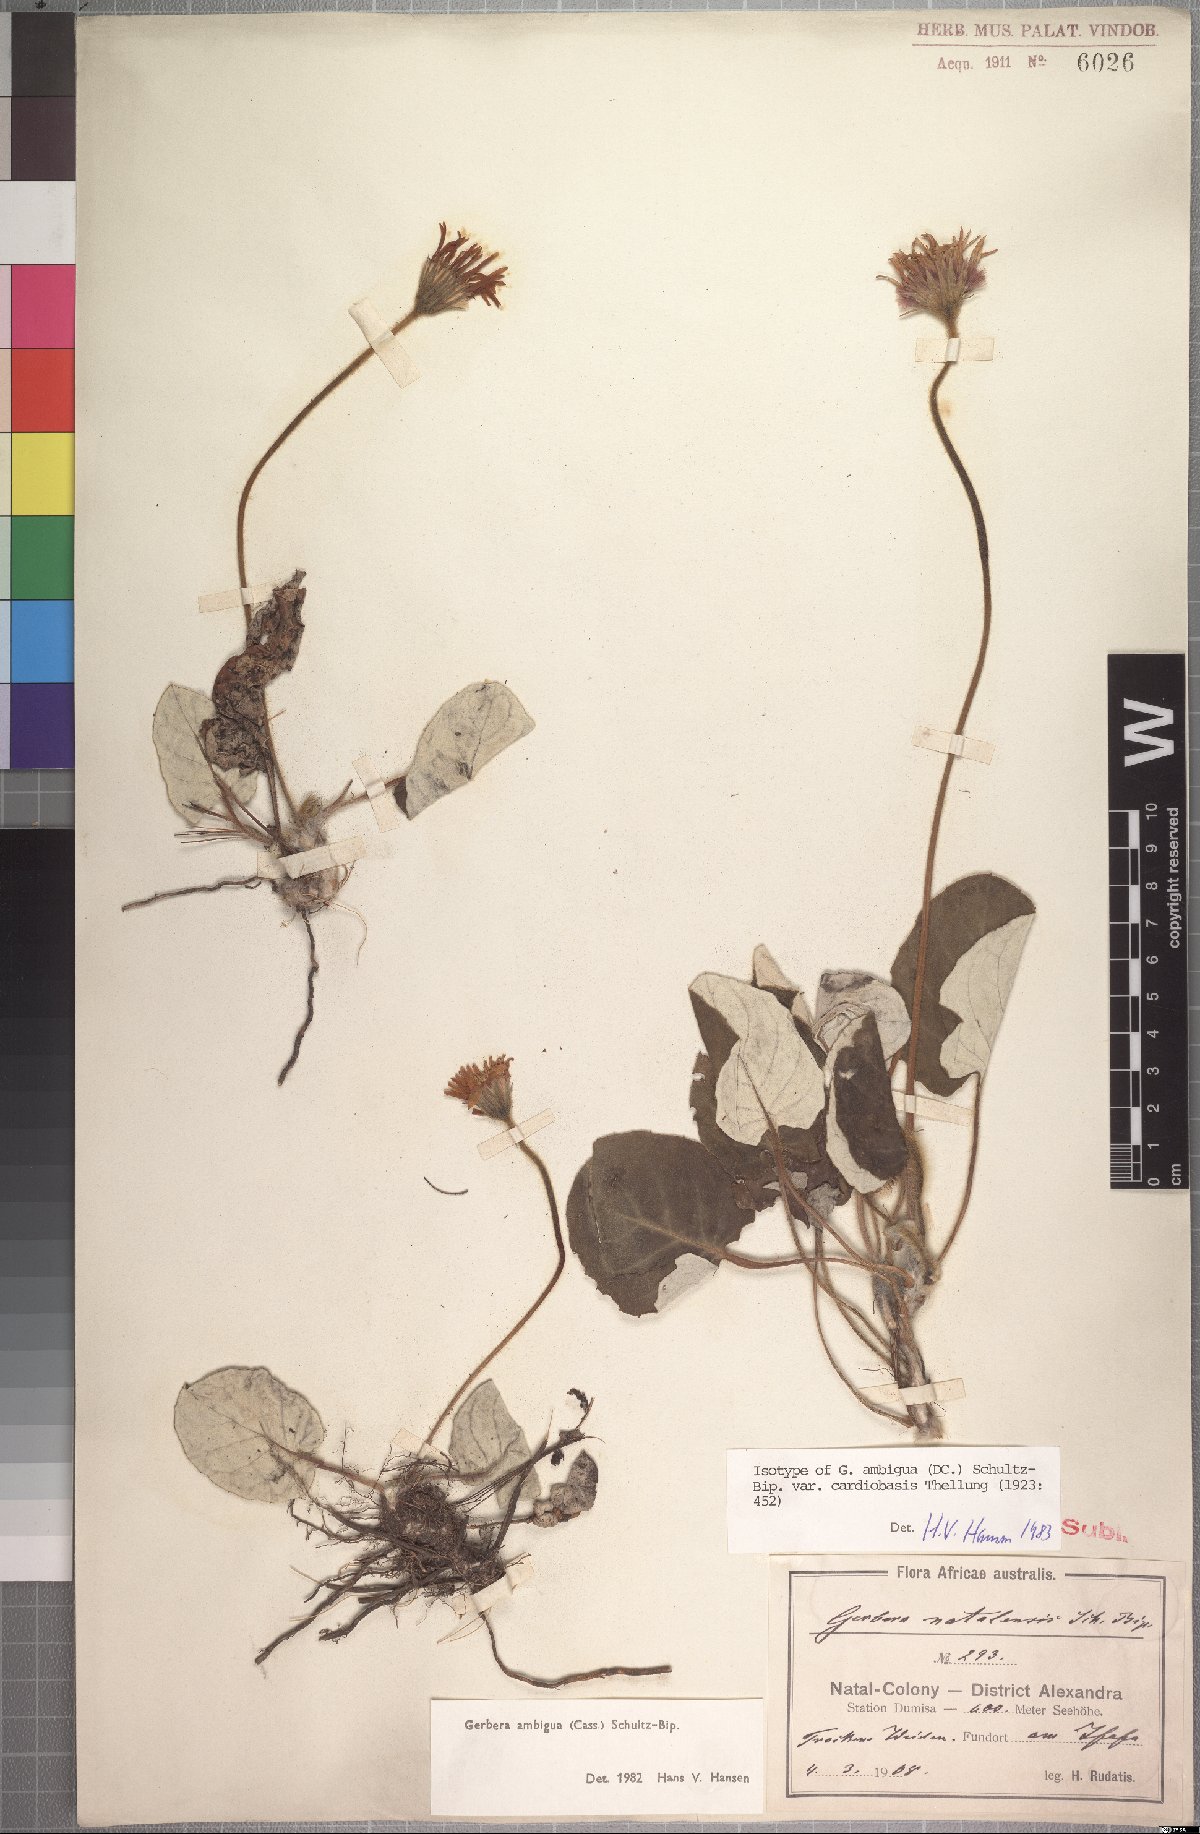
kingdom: Plantae
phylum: Tracheophyta
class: Magnoliopsida
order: Asterales
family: Asteraceae
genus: Gerbera
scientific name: Gerbera ambigua
